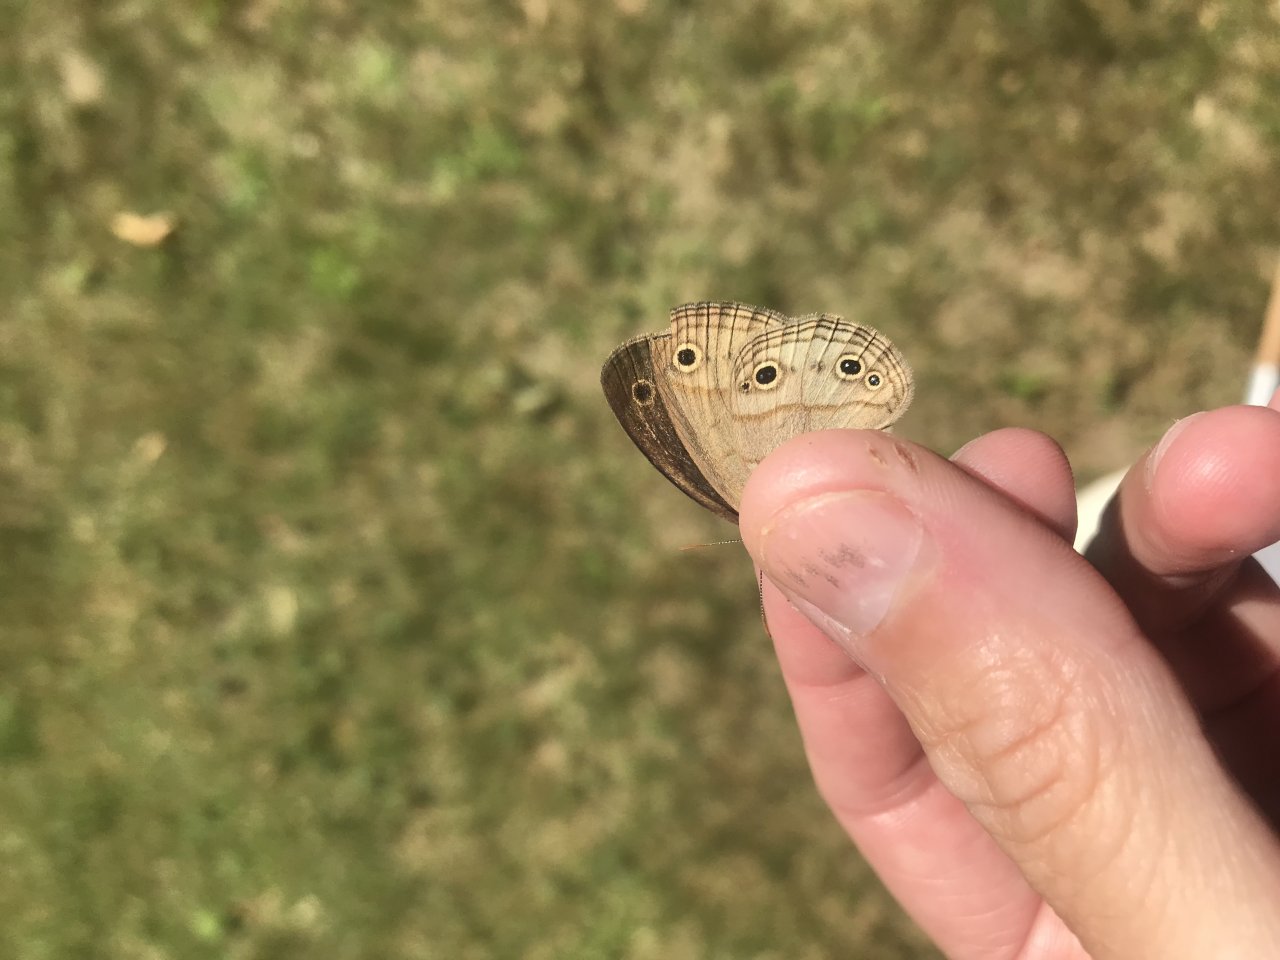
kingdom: Animalia
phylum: Arthropoda
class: Insecta
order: Lepidoptera
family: Nymphalidae
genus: Euptychia
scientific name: Euptychia cymela
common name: Little Wood Satyr
